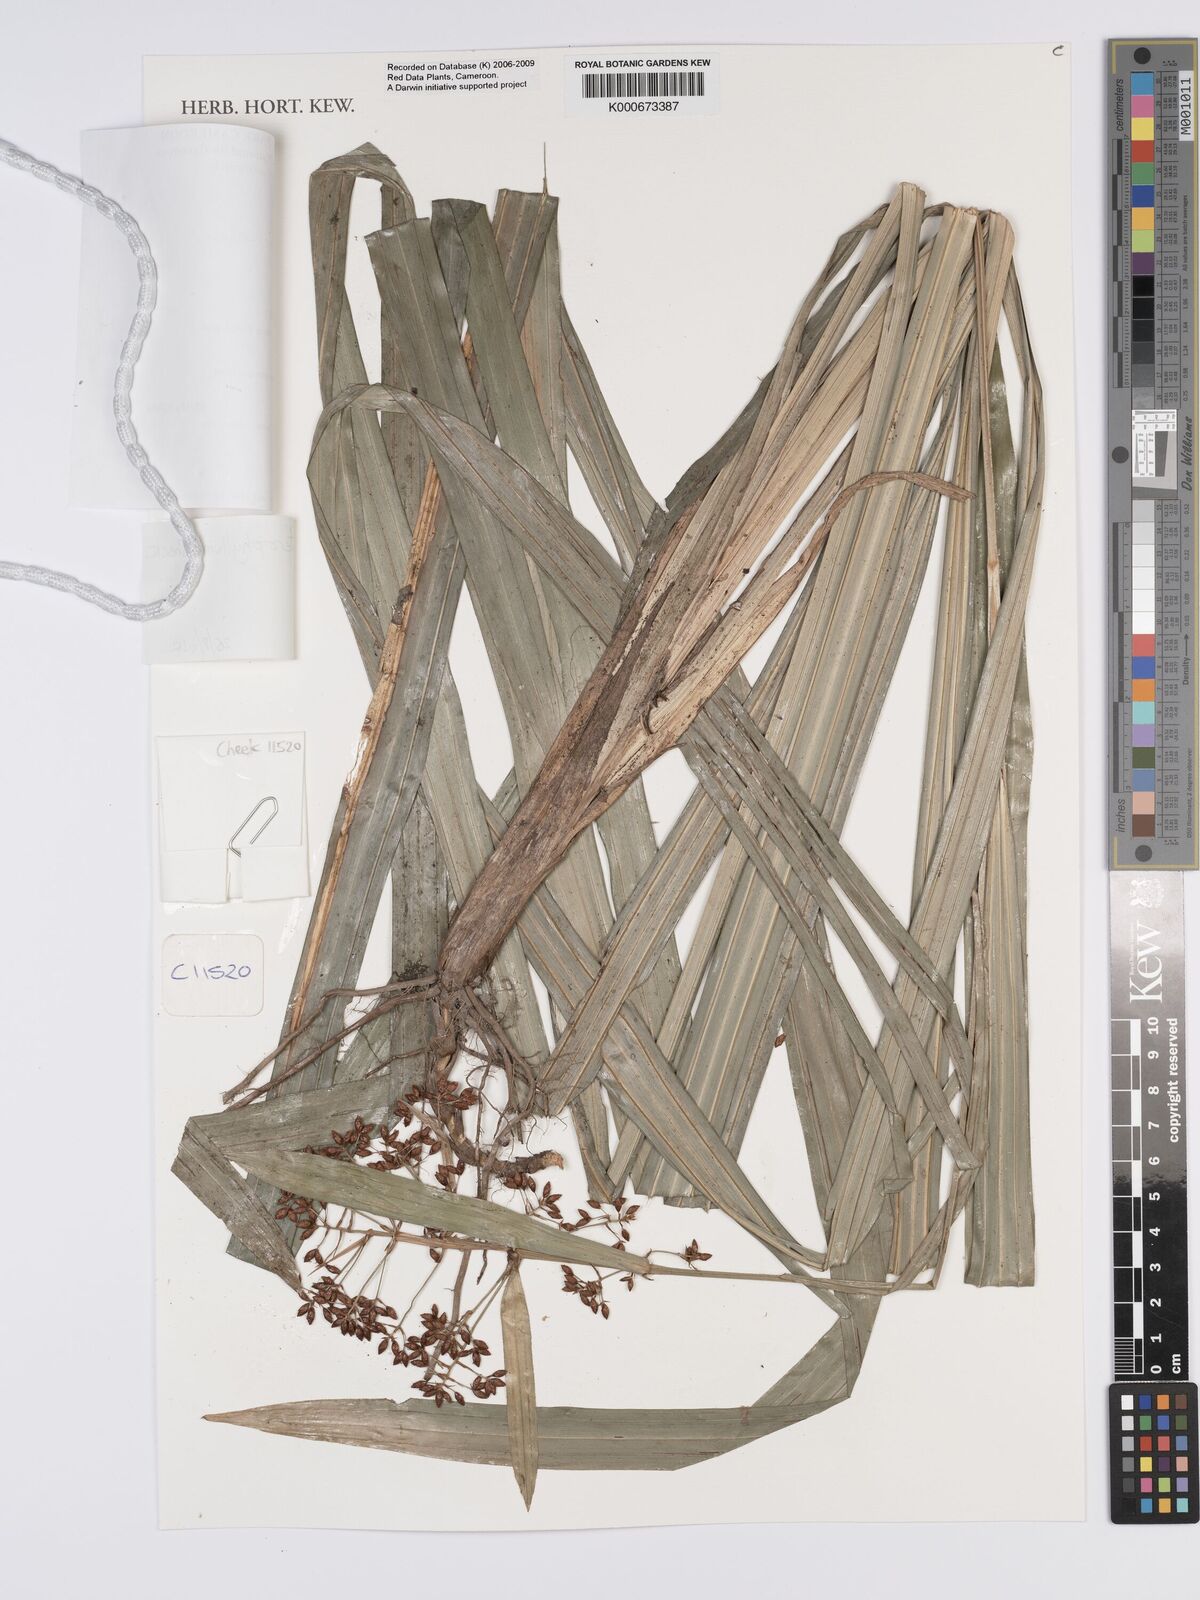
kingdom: Plantae
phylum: Tracheophyta
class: Liliopsida
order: Poales
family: Cyperaceae
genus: Hypolytrum
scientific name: Hypolytrum heterophyllum
